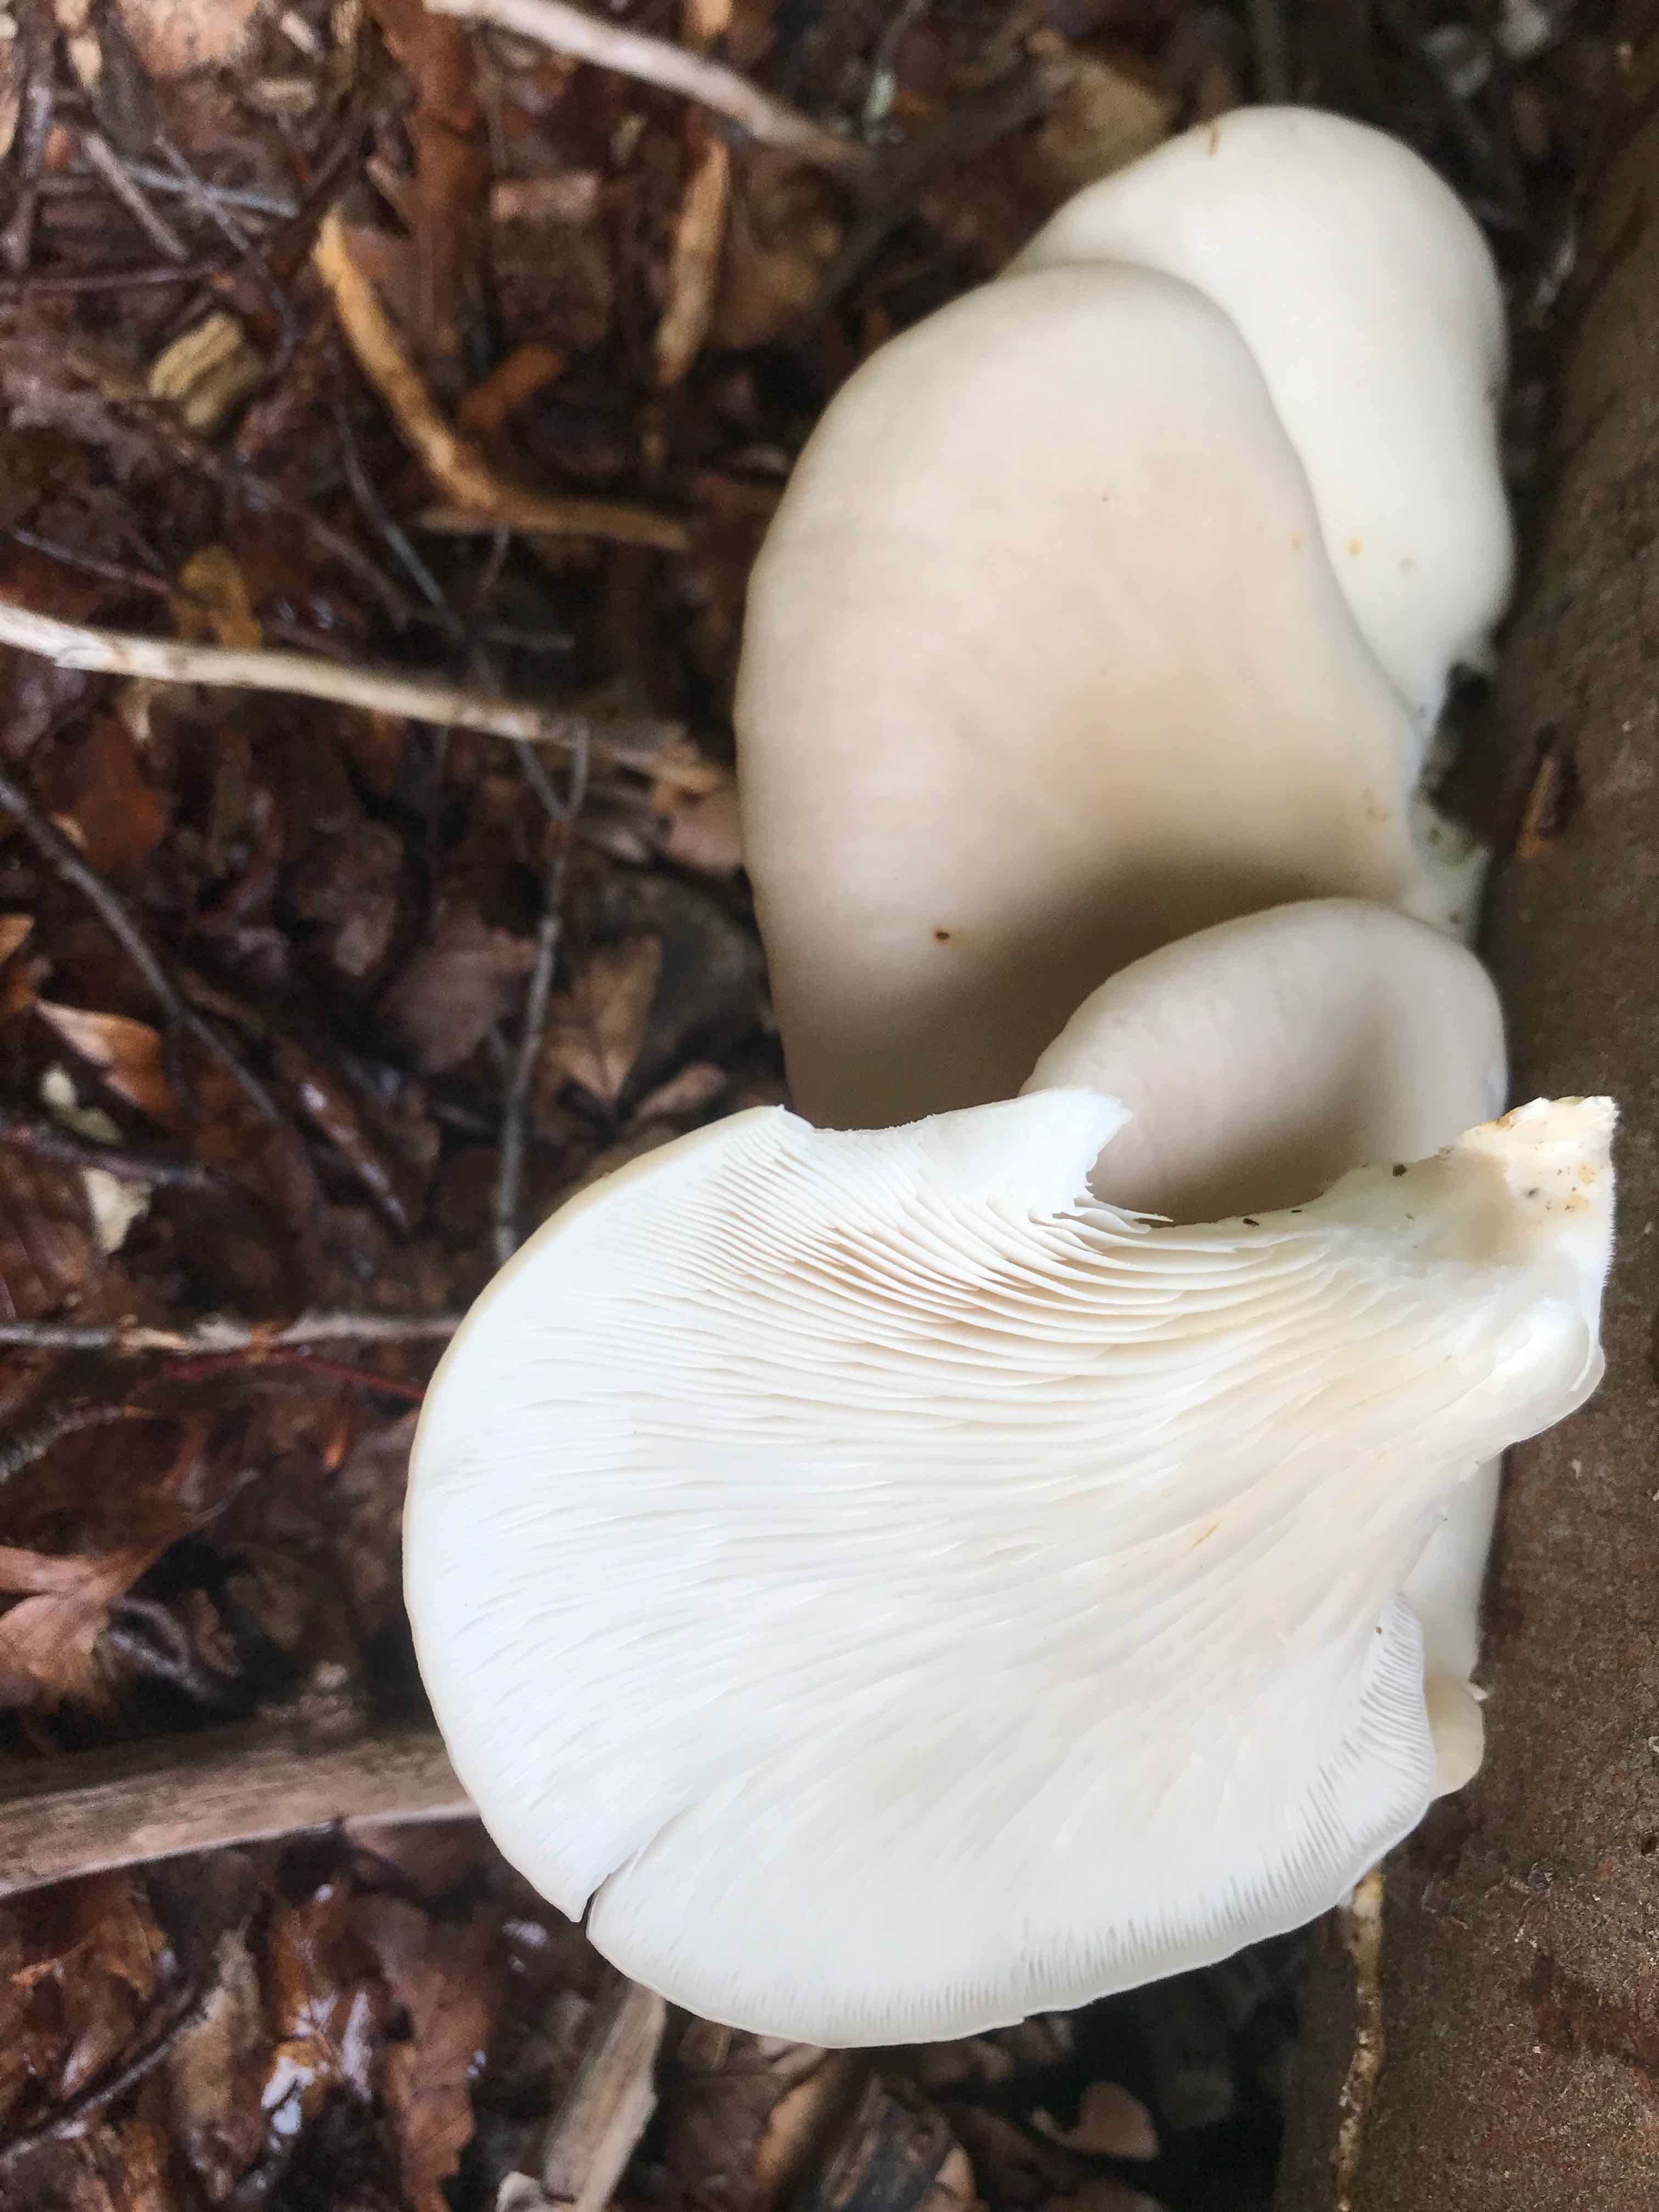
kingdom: Fungi
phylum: Basidiomycota
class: Agaricomycetes
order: Agaricales
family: Pleurotaceae
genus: Pleurotus
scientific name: Pleurotus pulmonarius
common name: sommer-østershat
